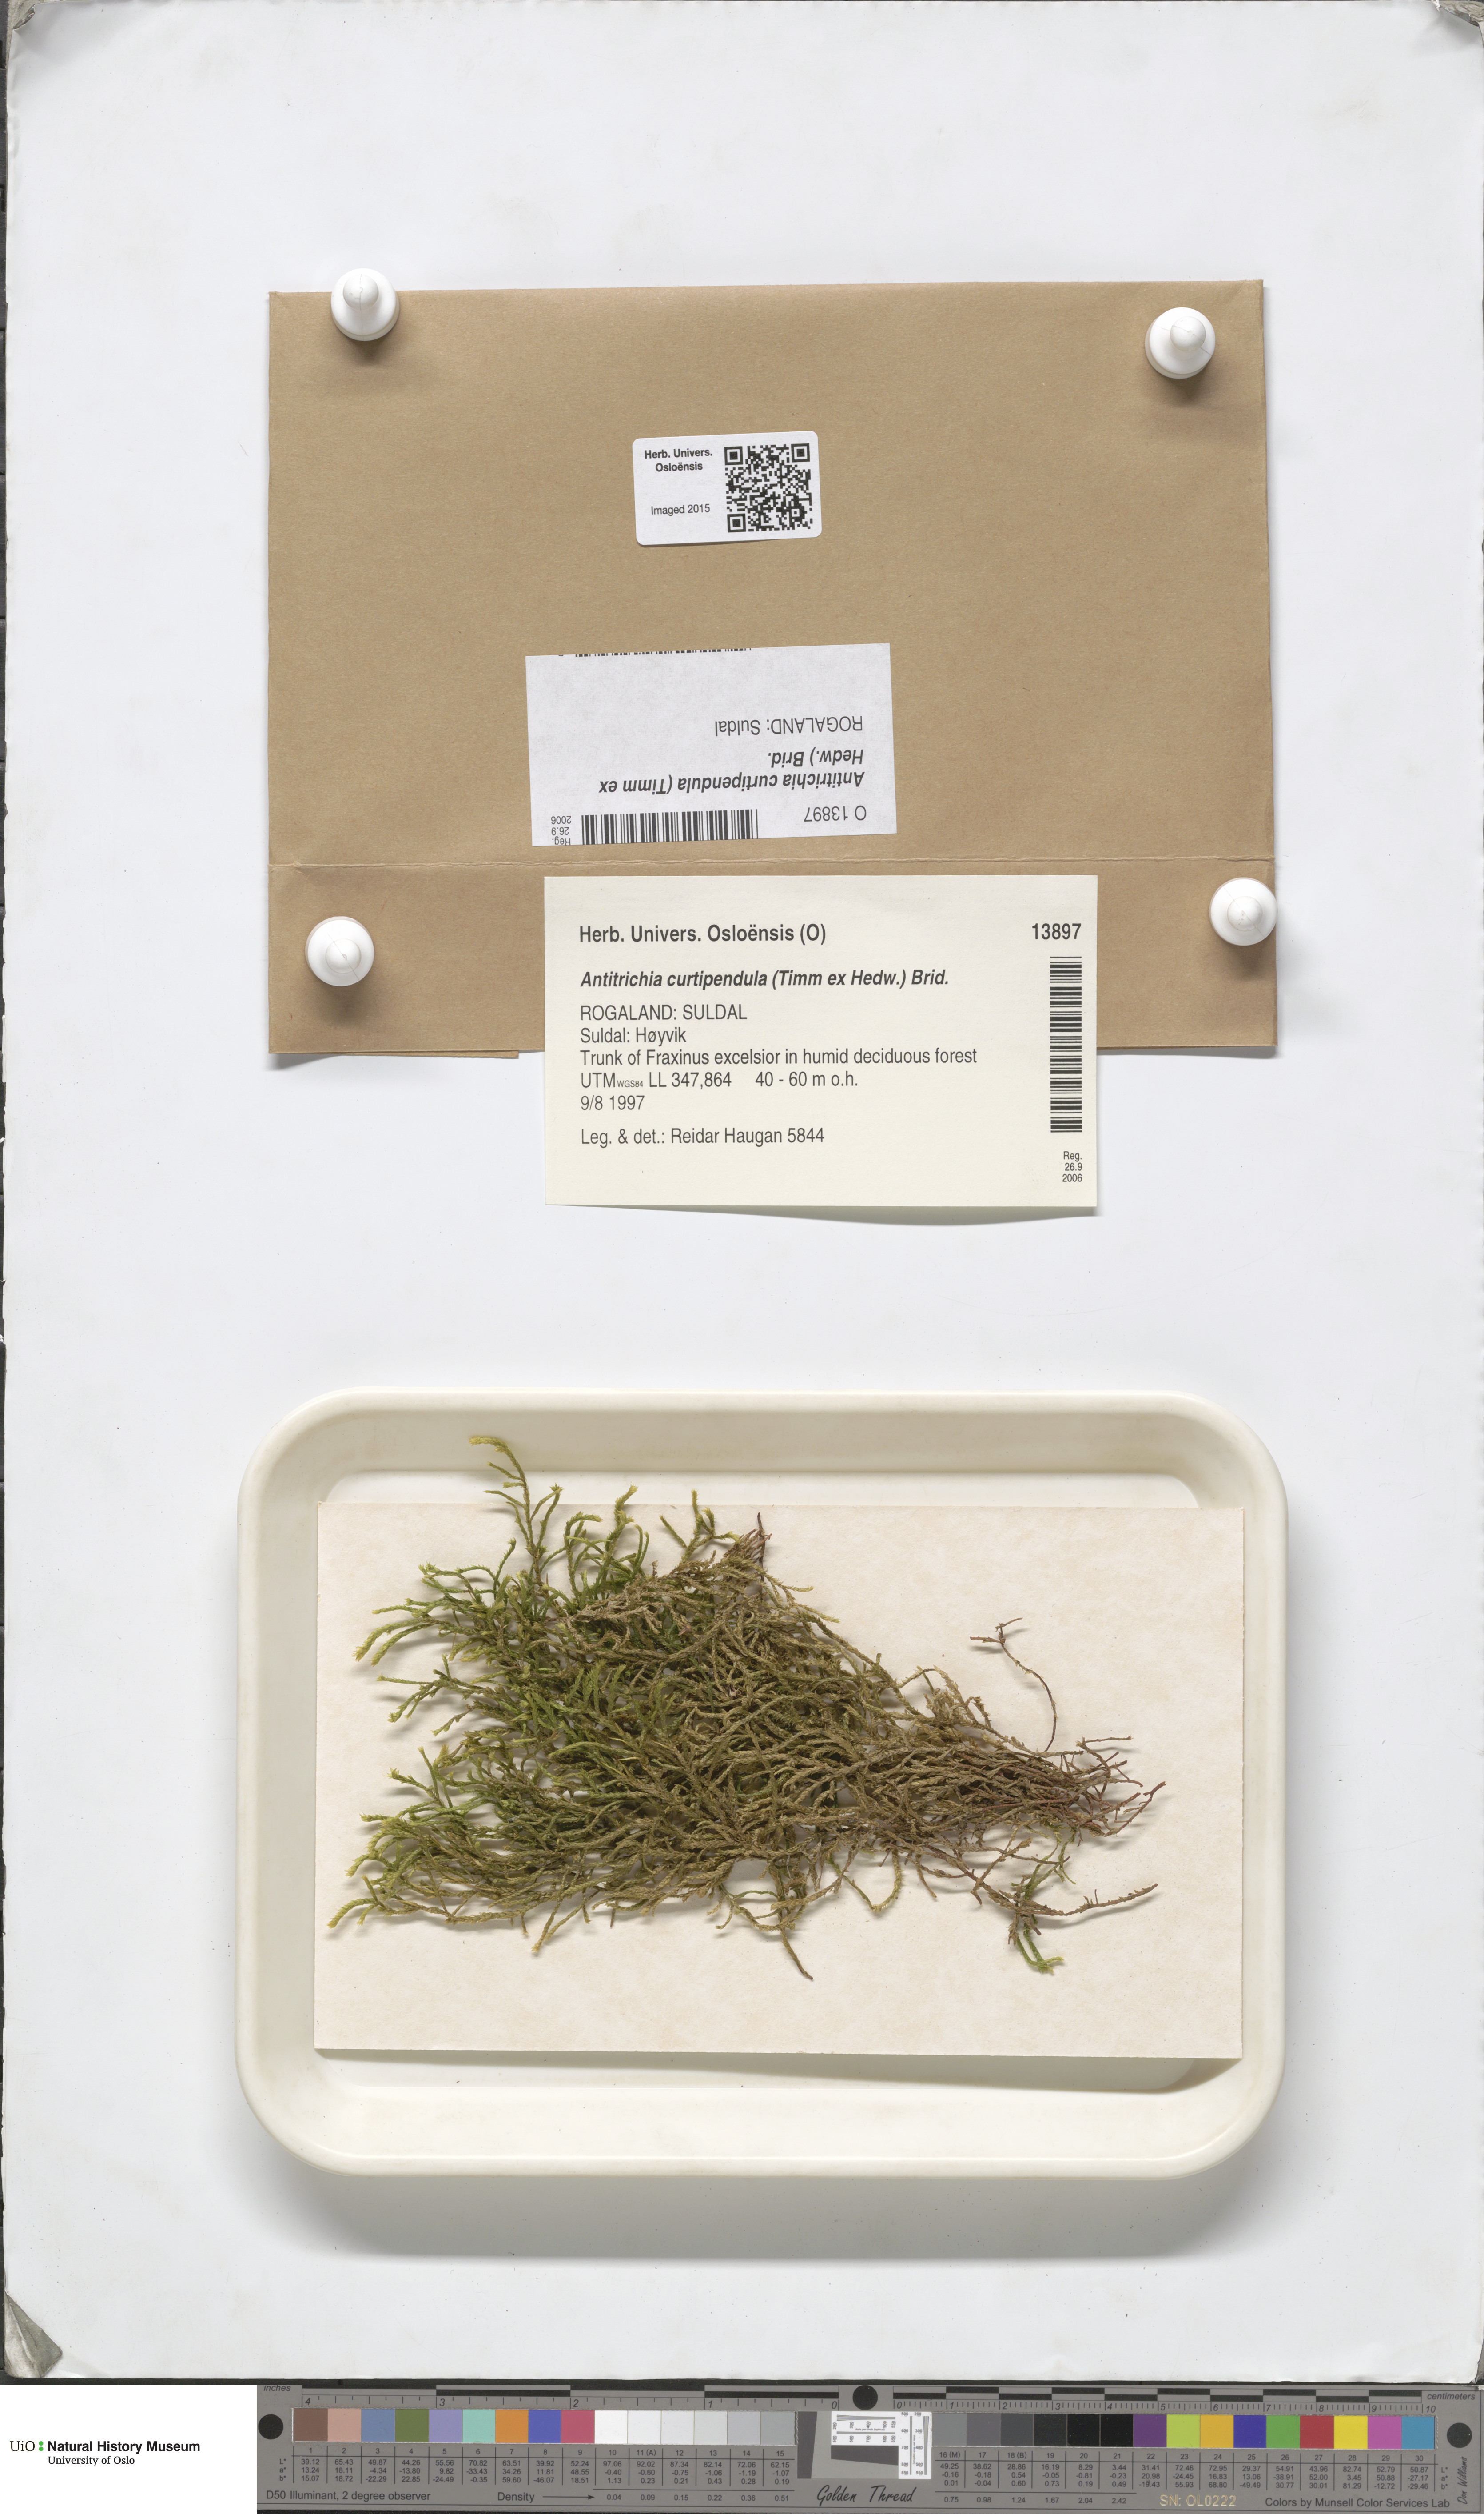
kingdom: Plantae
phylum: Bryophyta
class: Bryopsida
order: Hypnales
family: Antitrichiaceae
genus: Antitrichia
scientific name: Antitrichia curtipendula
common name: Pendulous wing-moss
